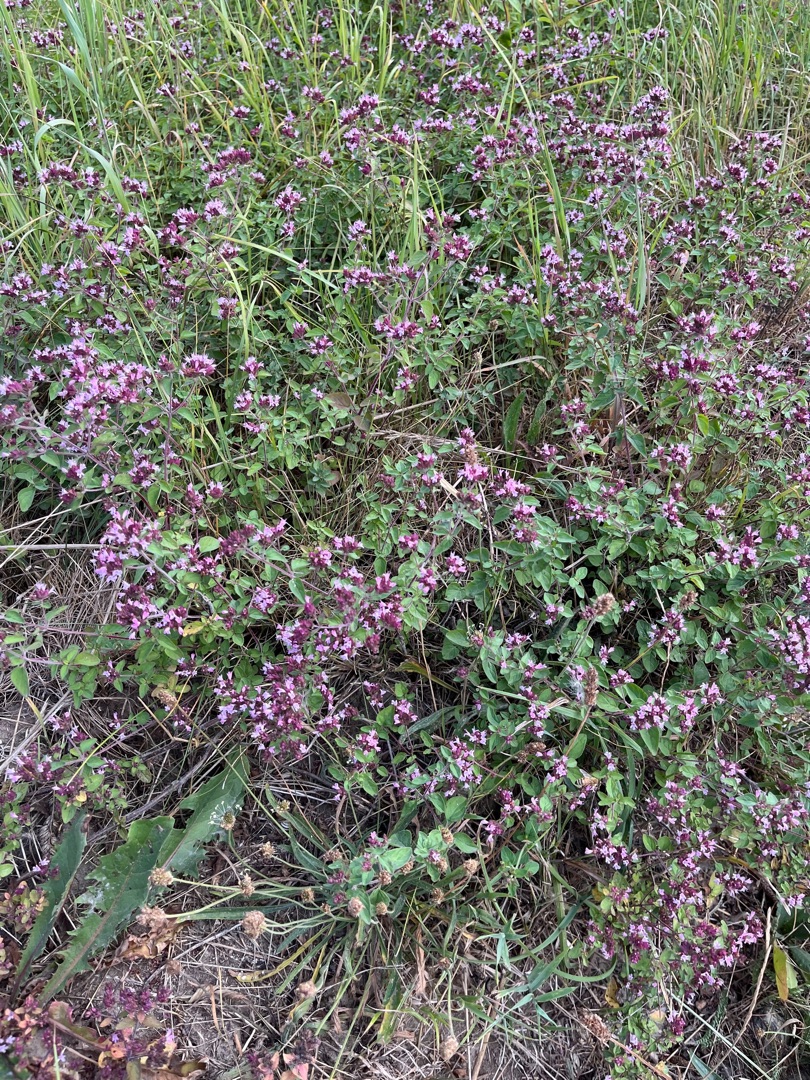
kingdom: Plantae
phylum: Tracheophyta
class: Magnoliopsida
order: Lamiales
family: Lamiaceae
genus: Origanum
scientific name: Origanum vulgare
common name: Merian
